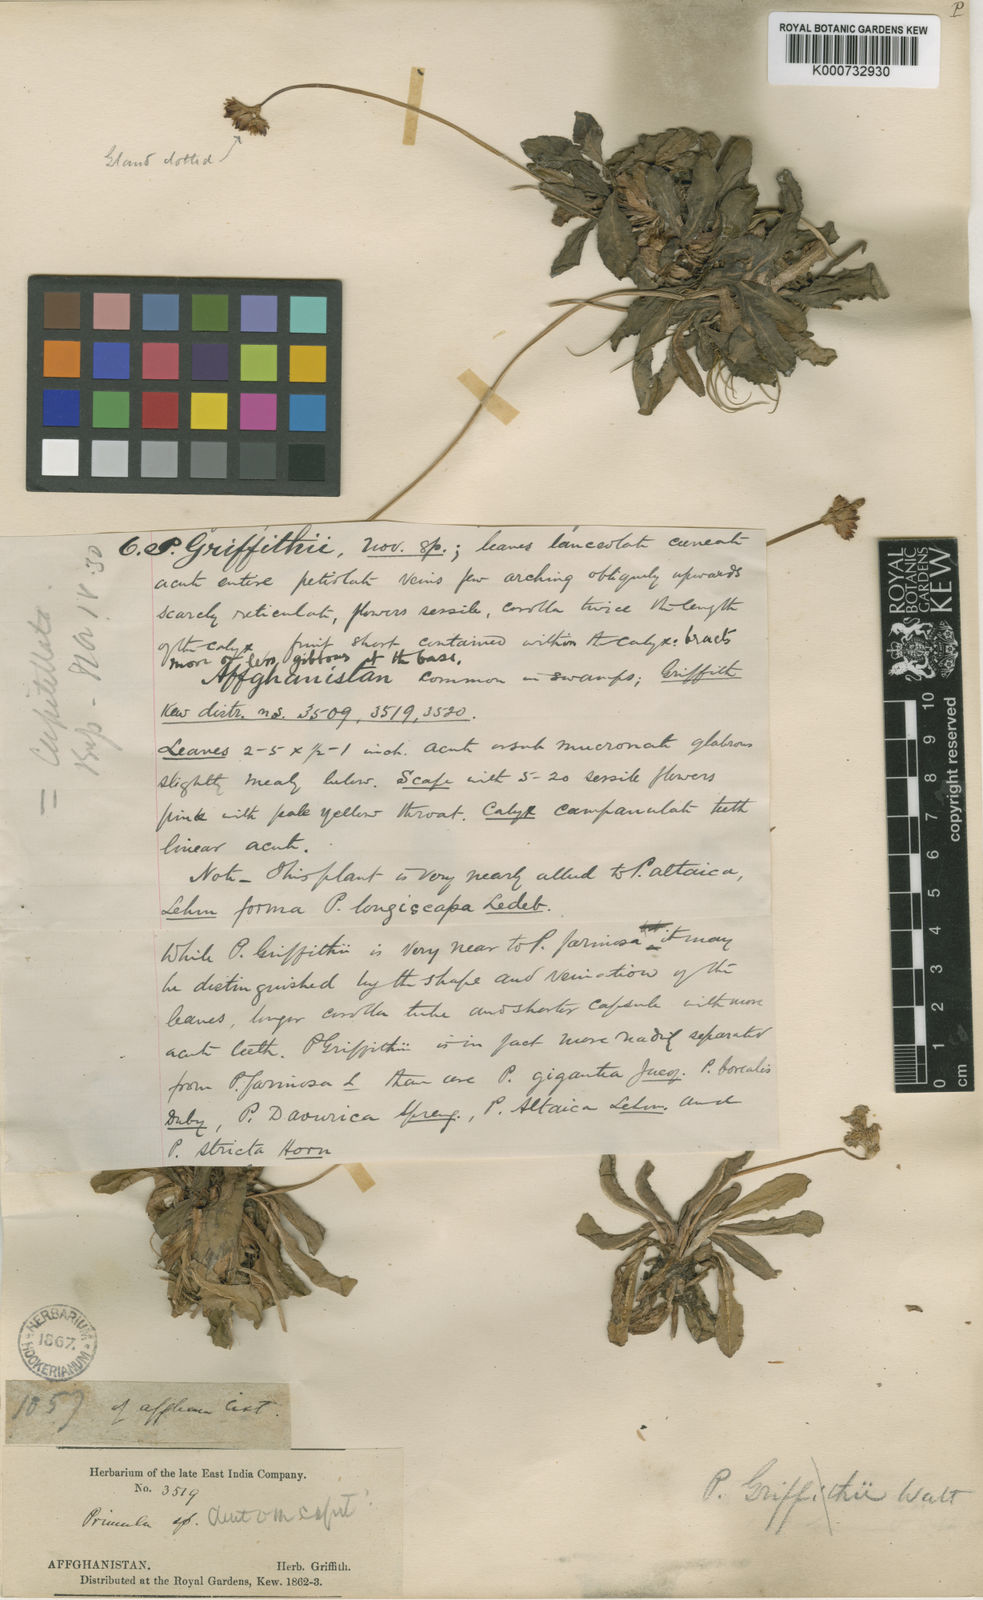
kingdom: Plantae
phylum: Tracheophyta
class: Magnoliopsida
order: Ericales
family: Primulaceae
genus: Primula
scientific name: Primula capitellata
